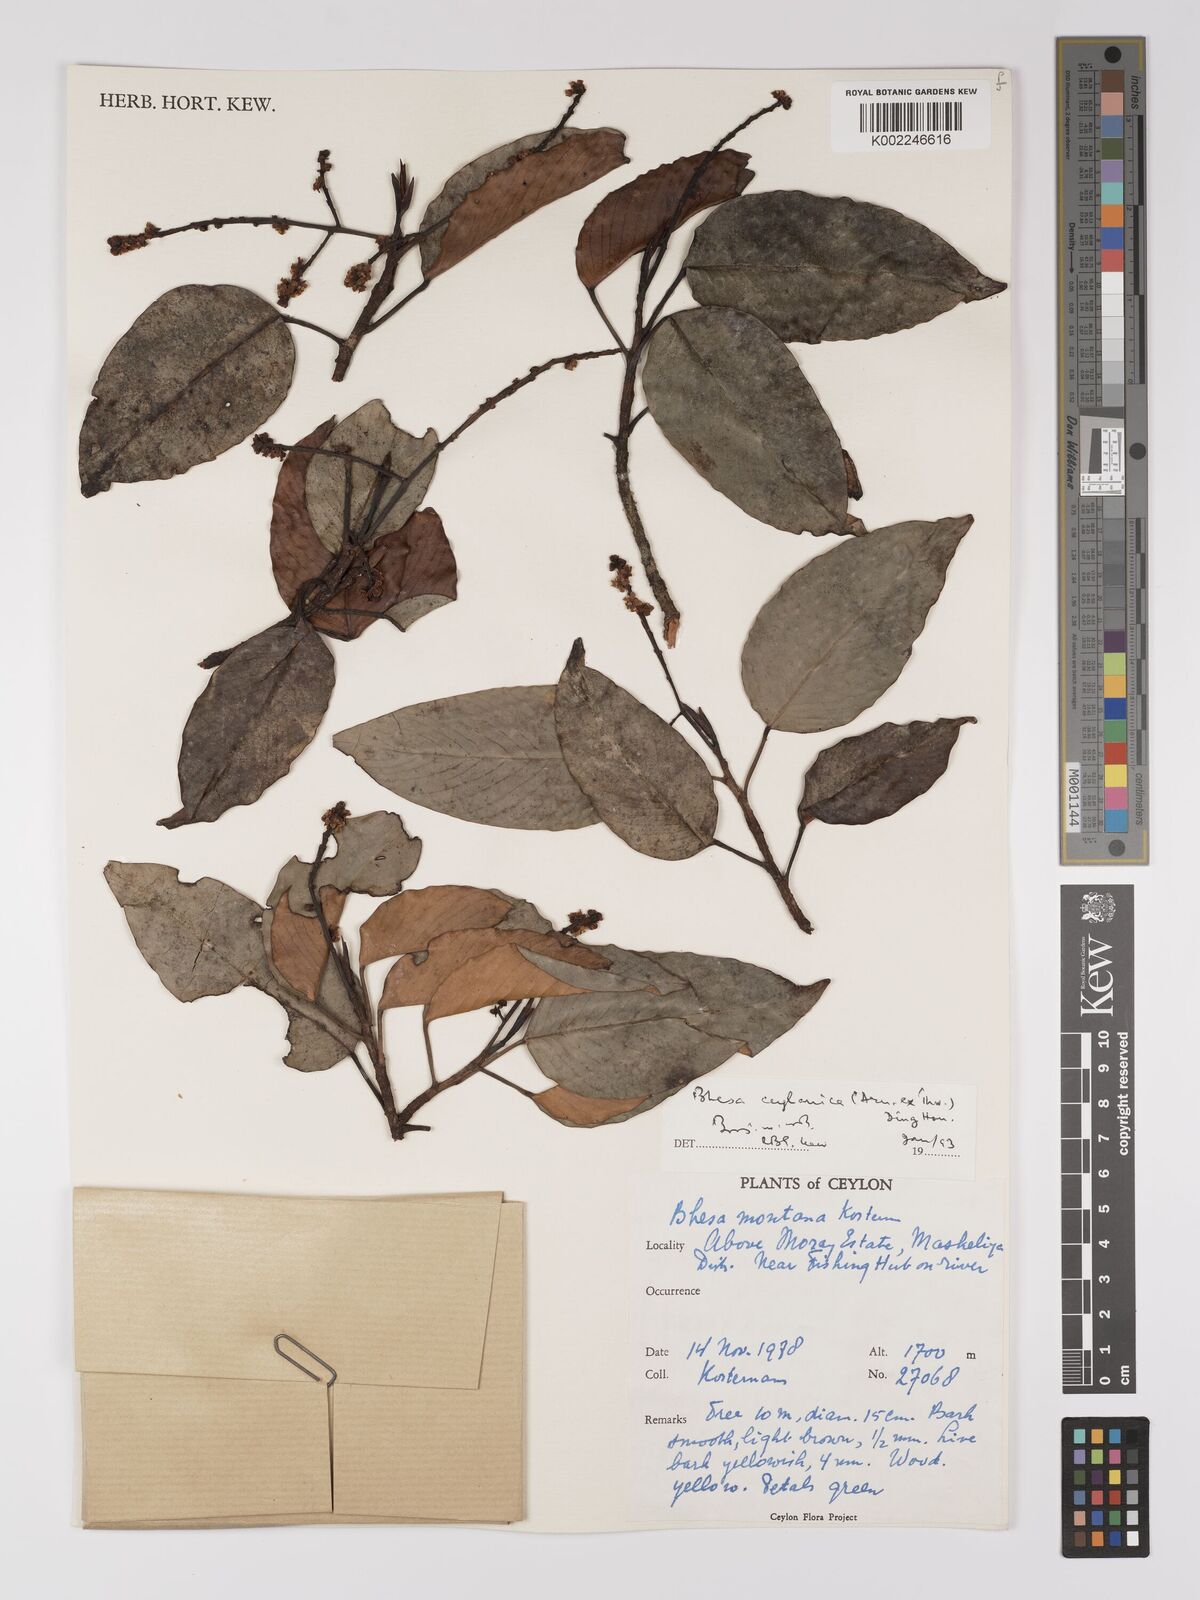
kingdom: Plantae
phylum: Tracheophyta
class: Magnoliopsida
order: Malpighiales
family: Centroplacaceae
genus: Bhesa
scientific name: Bhesa ceylanica
